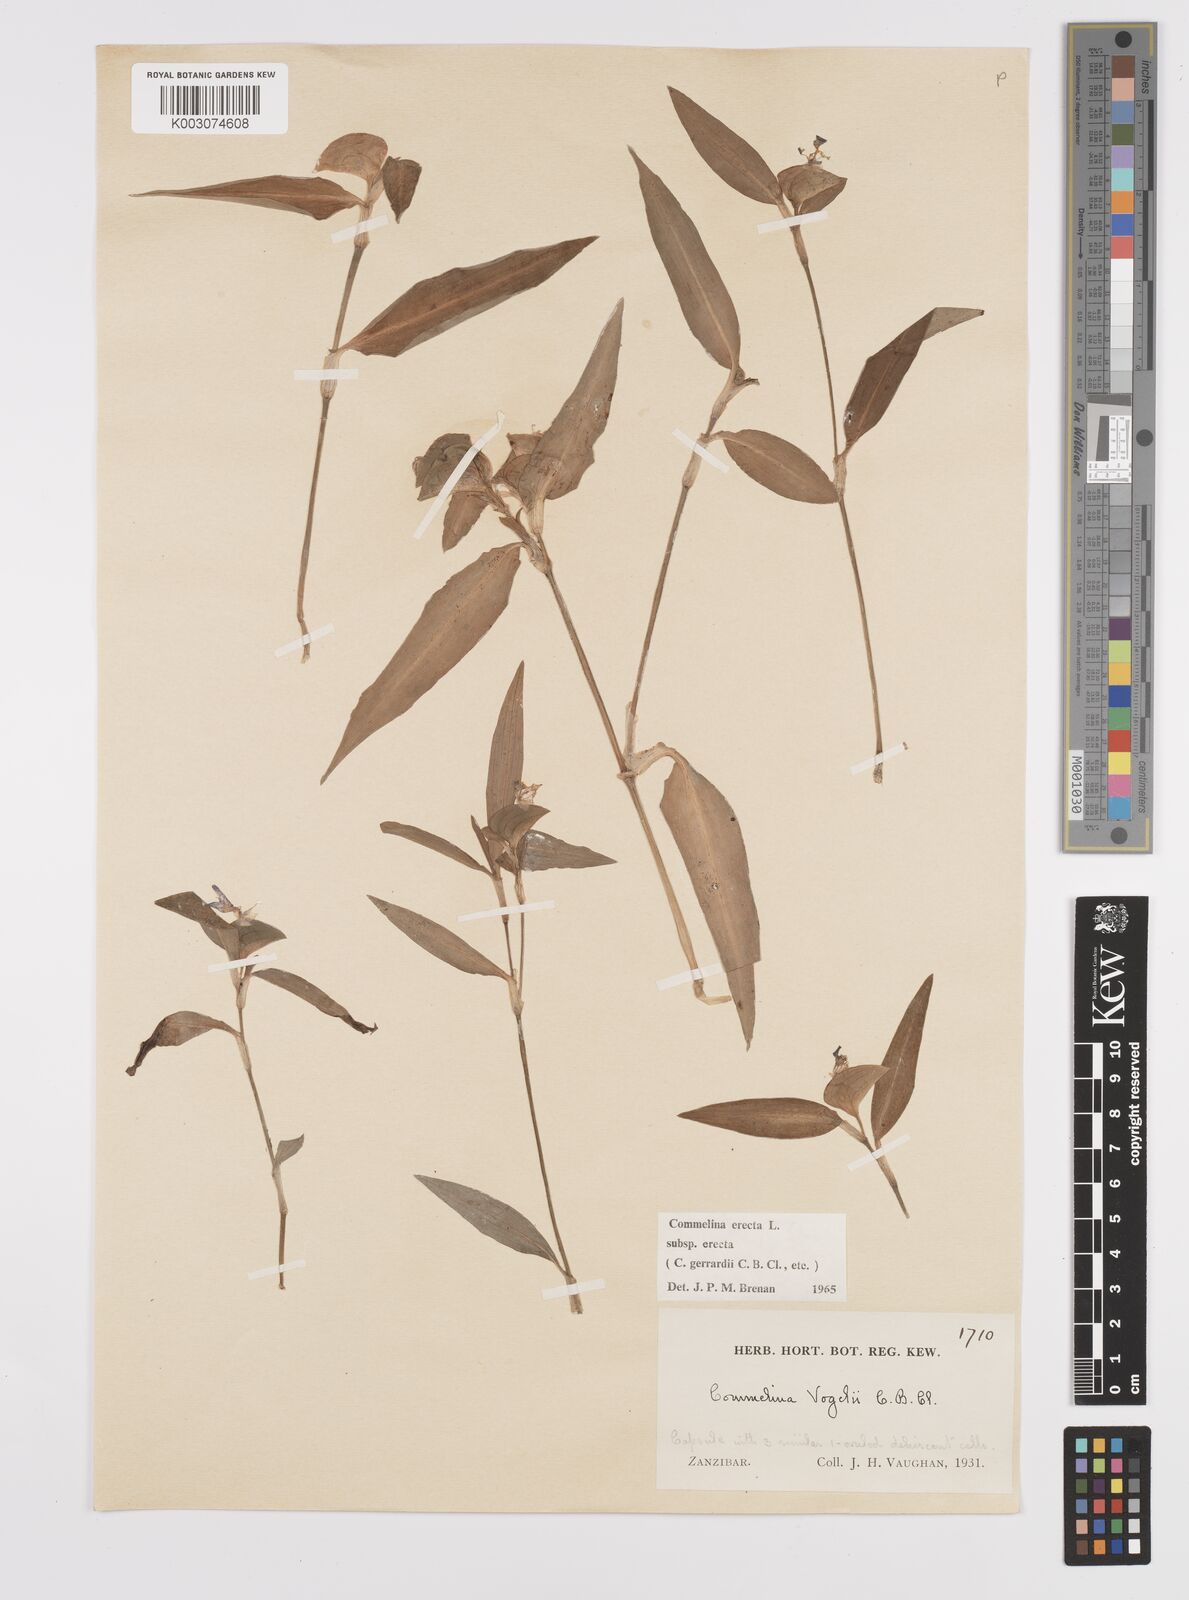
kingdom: Plantae
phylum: Tracheophyta
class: Liliopsida
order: Commelinales
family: Commelinaceae
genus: Commelina
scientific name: Commelina erecta
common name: Blousel blommetjie
